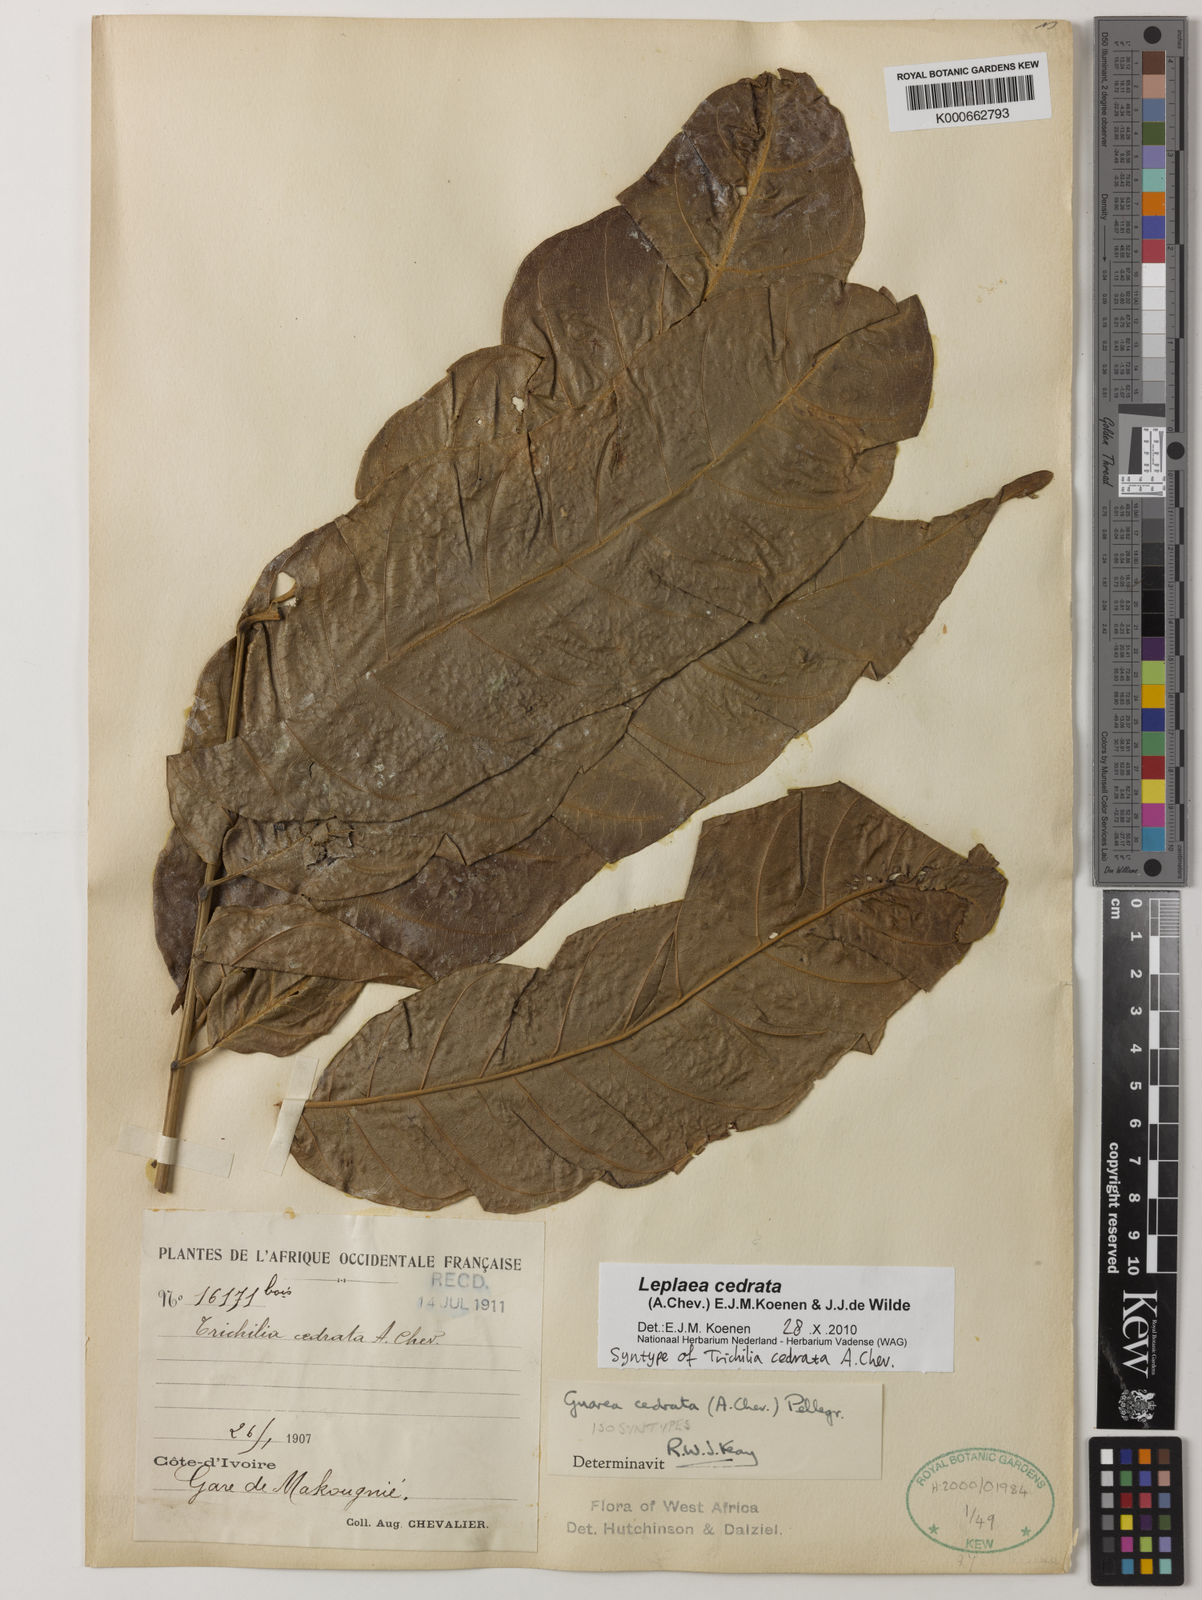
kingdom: Plantae
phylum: Tracheophyta
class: Magnoliopsida
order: Sapindales
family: Meliaceae
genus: Leplaea
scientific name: Leplaea cedrata
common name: Light bossé
